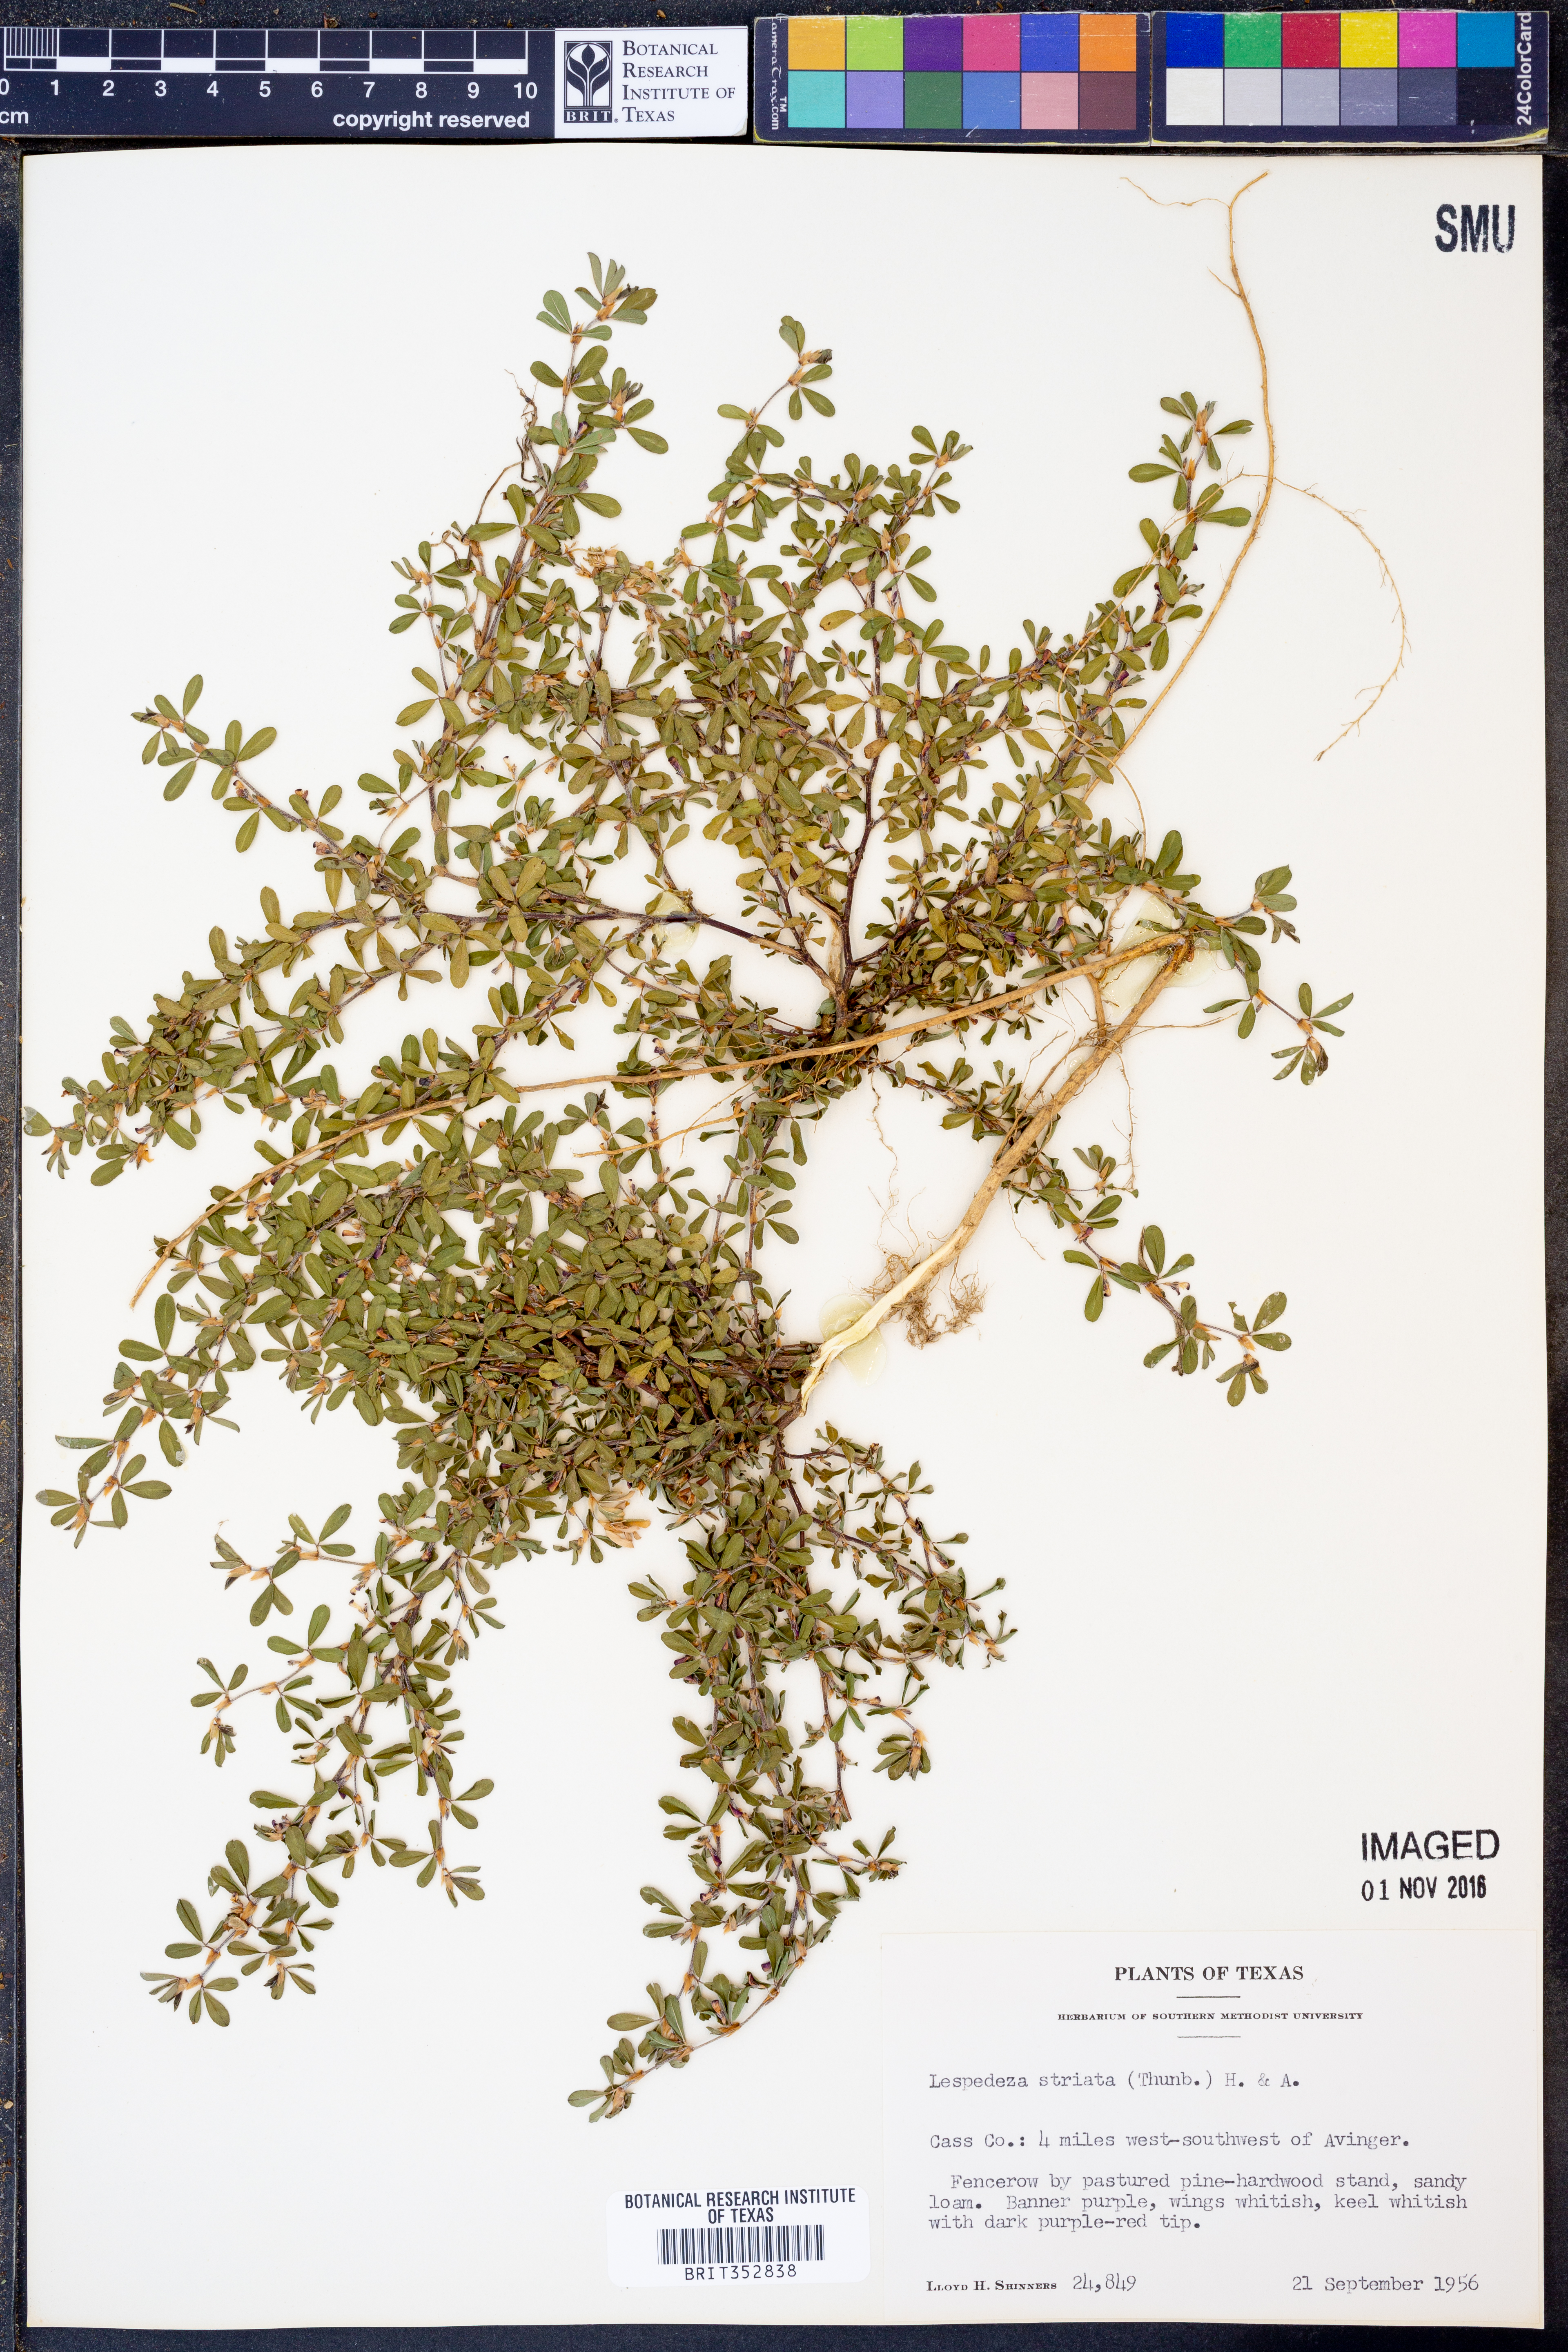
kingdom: Plantae
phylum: Tracheophyta
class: Magnoliopsida
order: Fabales
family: Fabaceae
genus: Kummerowia
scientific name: Kummerowia striata
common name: Japanese clover
